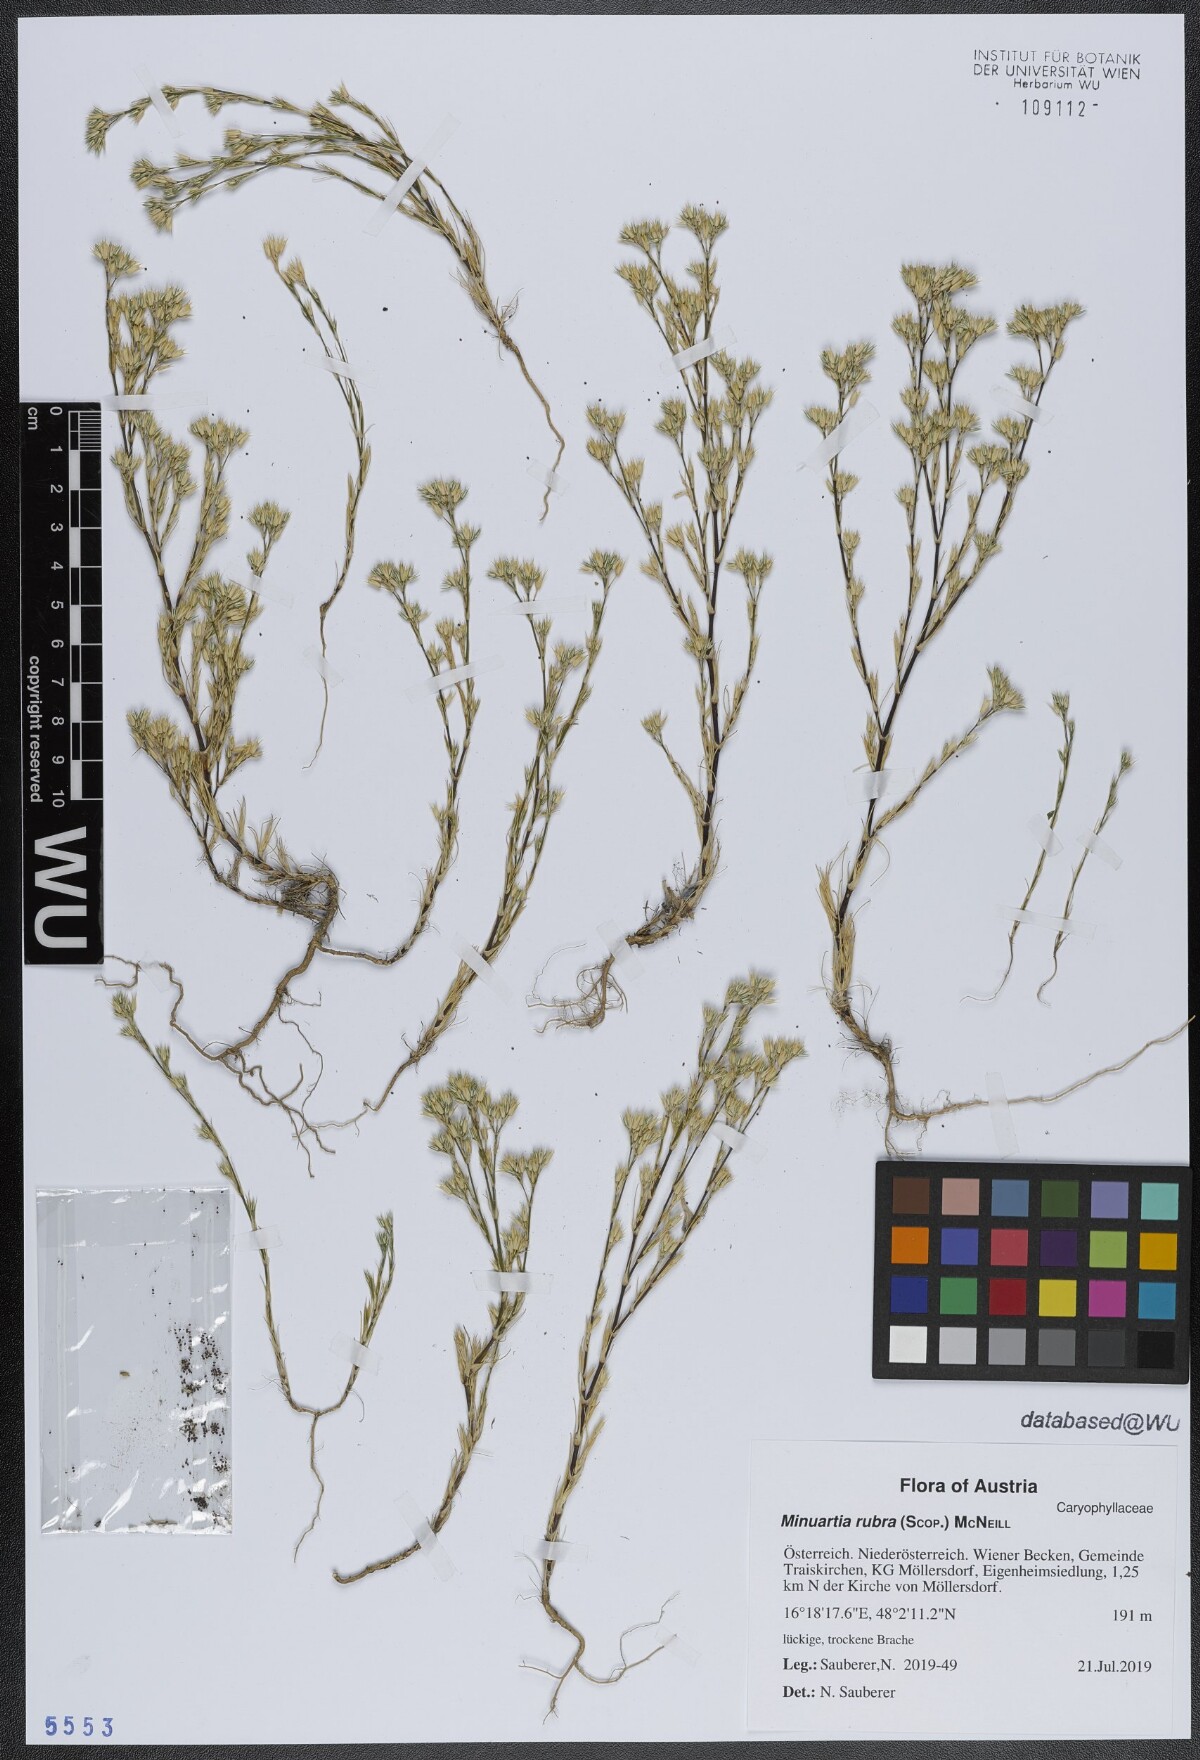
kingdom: Plantae
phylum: Tracheophyta
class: Magnoliopsida
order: Caryophyllales
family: Caryophyllaceae
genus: Minuartia
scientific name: Minuartia mucronata
